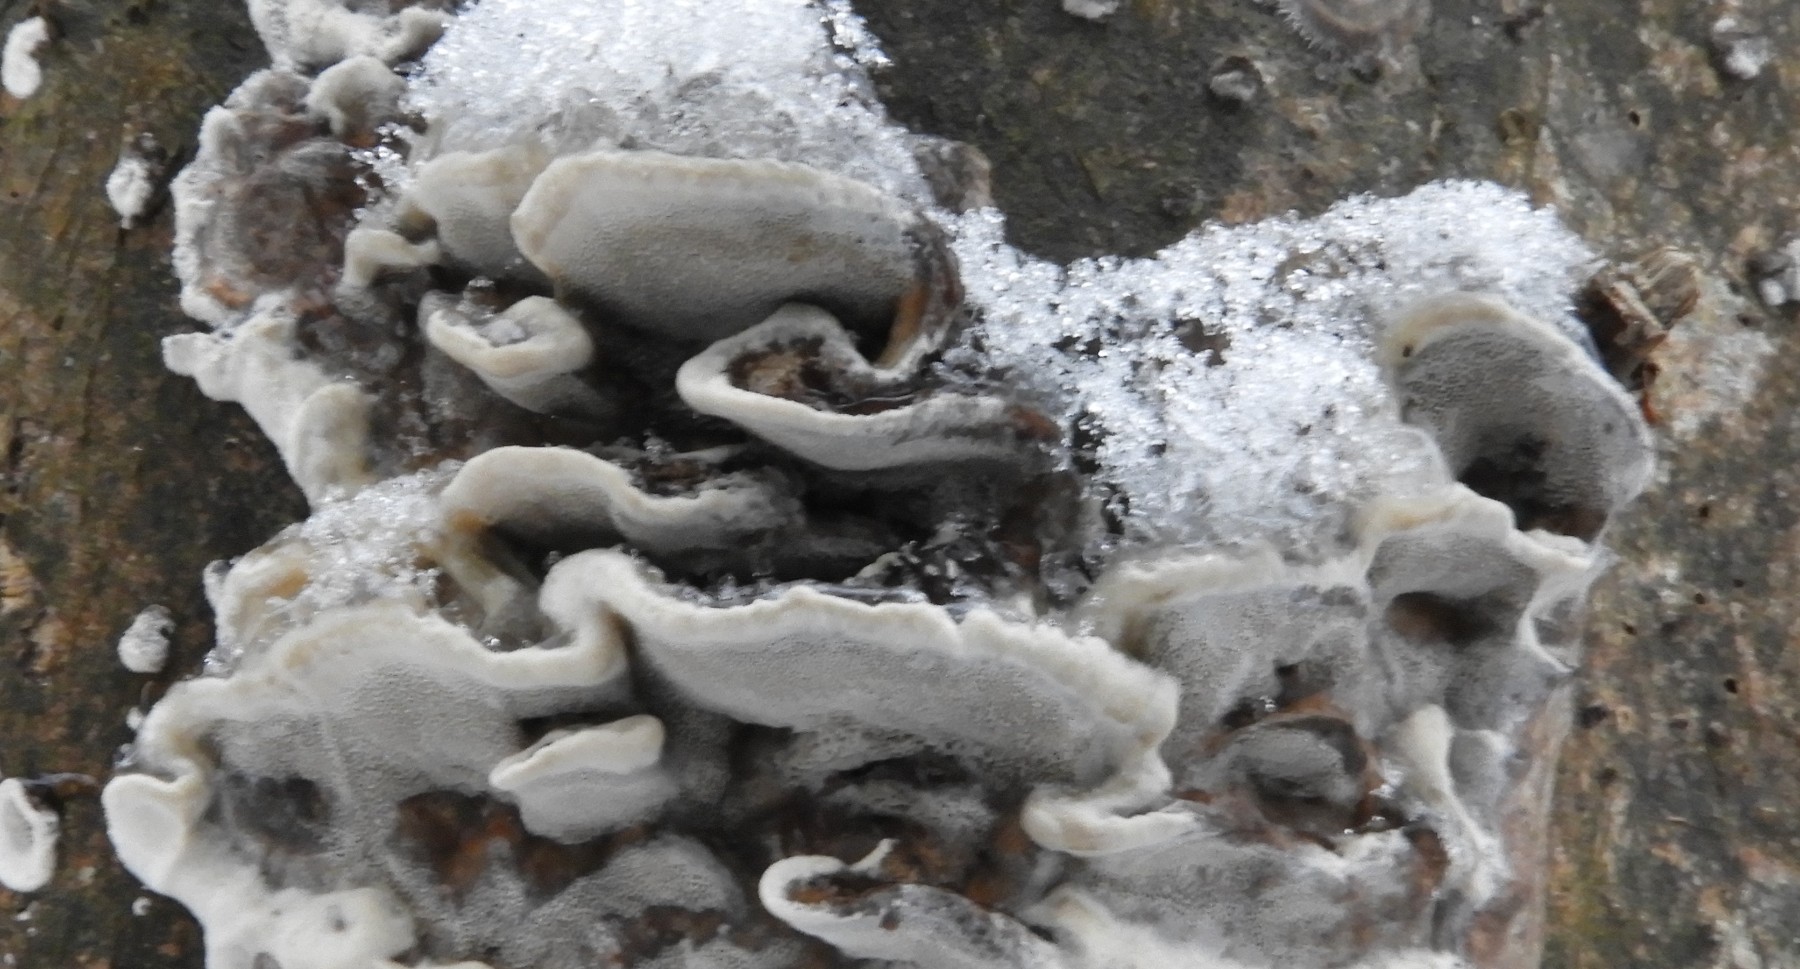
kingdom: Fungi
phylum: Basidiomycota
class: Agaricomycetes
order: Polyporales
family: Phanerochaetaceae
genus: Bjerkandera
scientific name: Bjerkandera adusta
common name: sveden sodporesvamp
